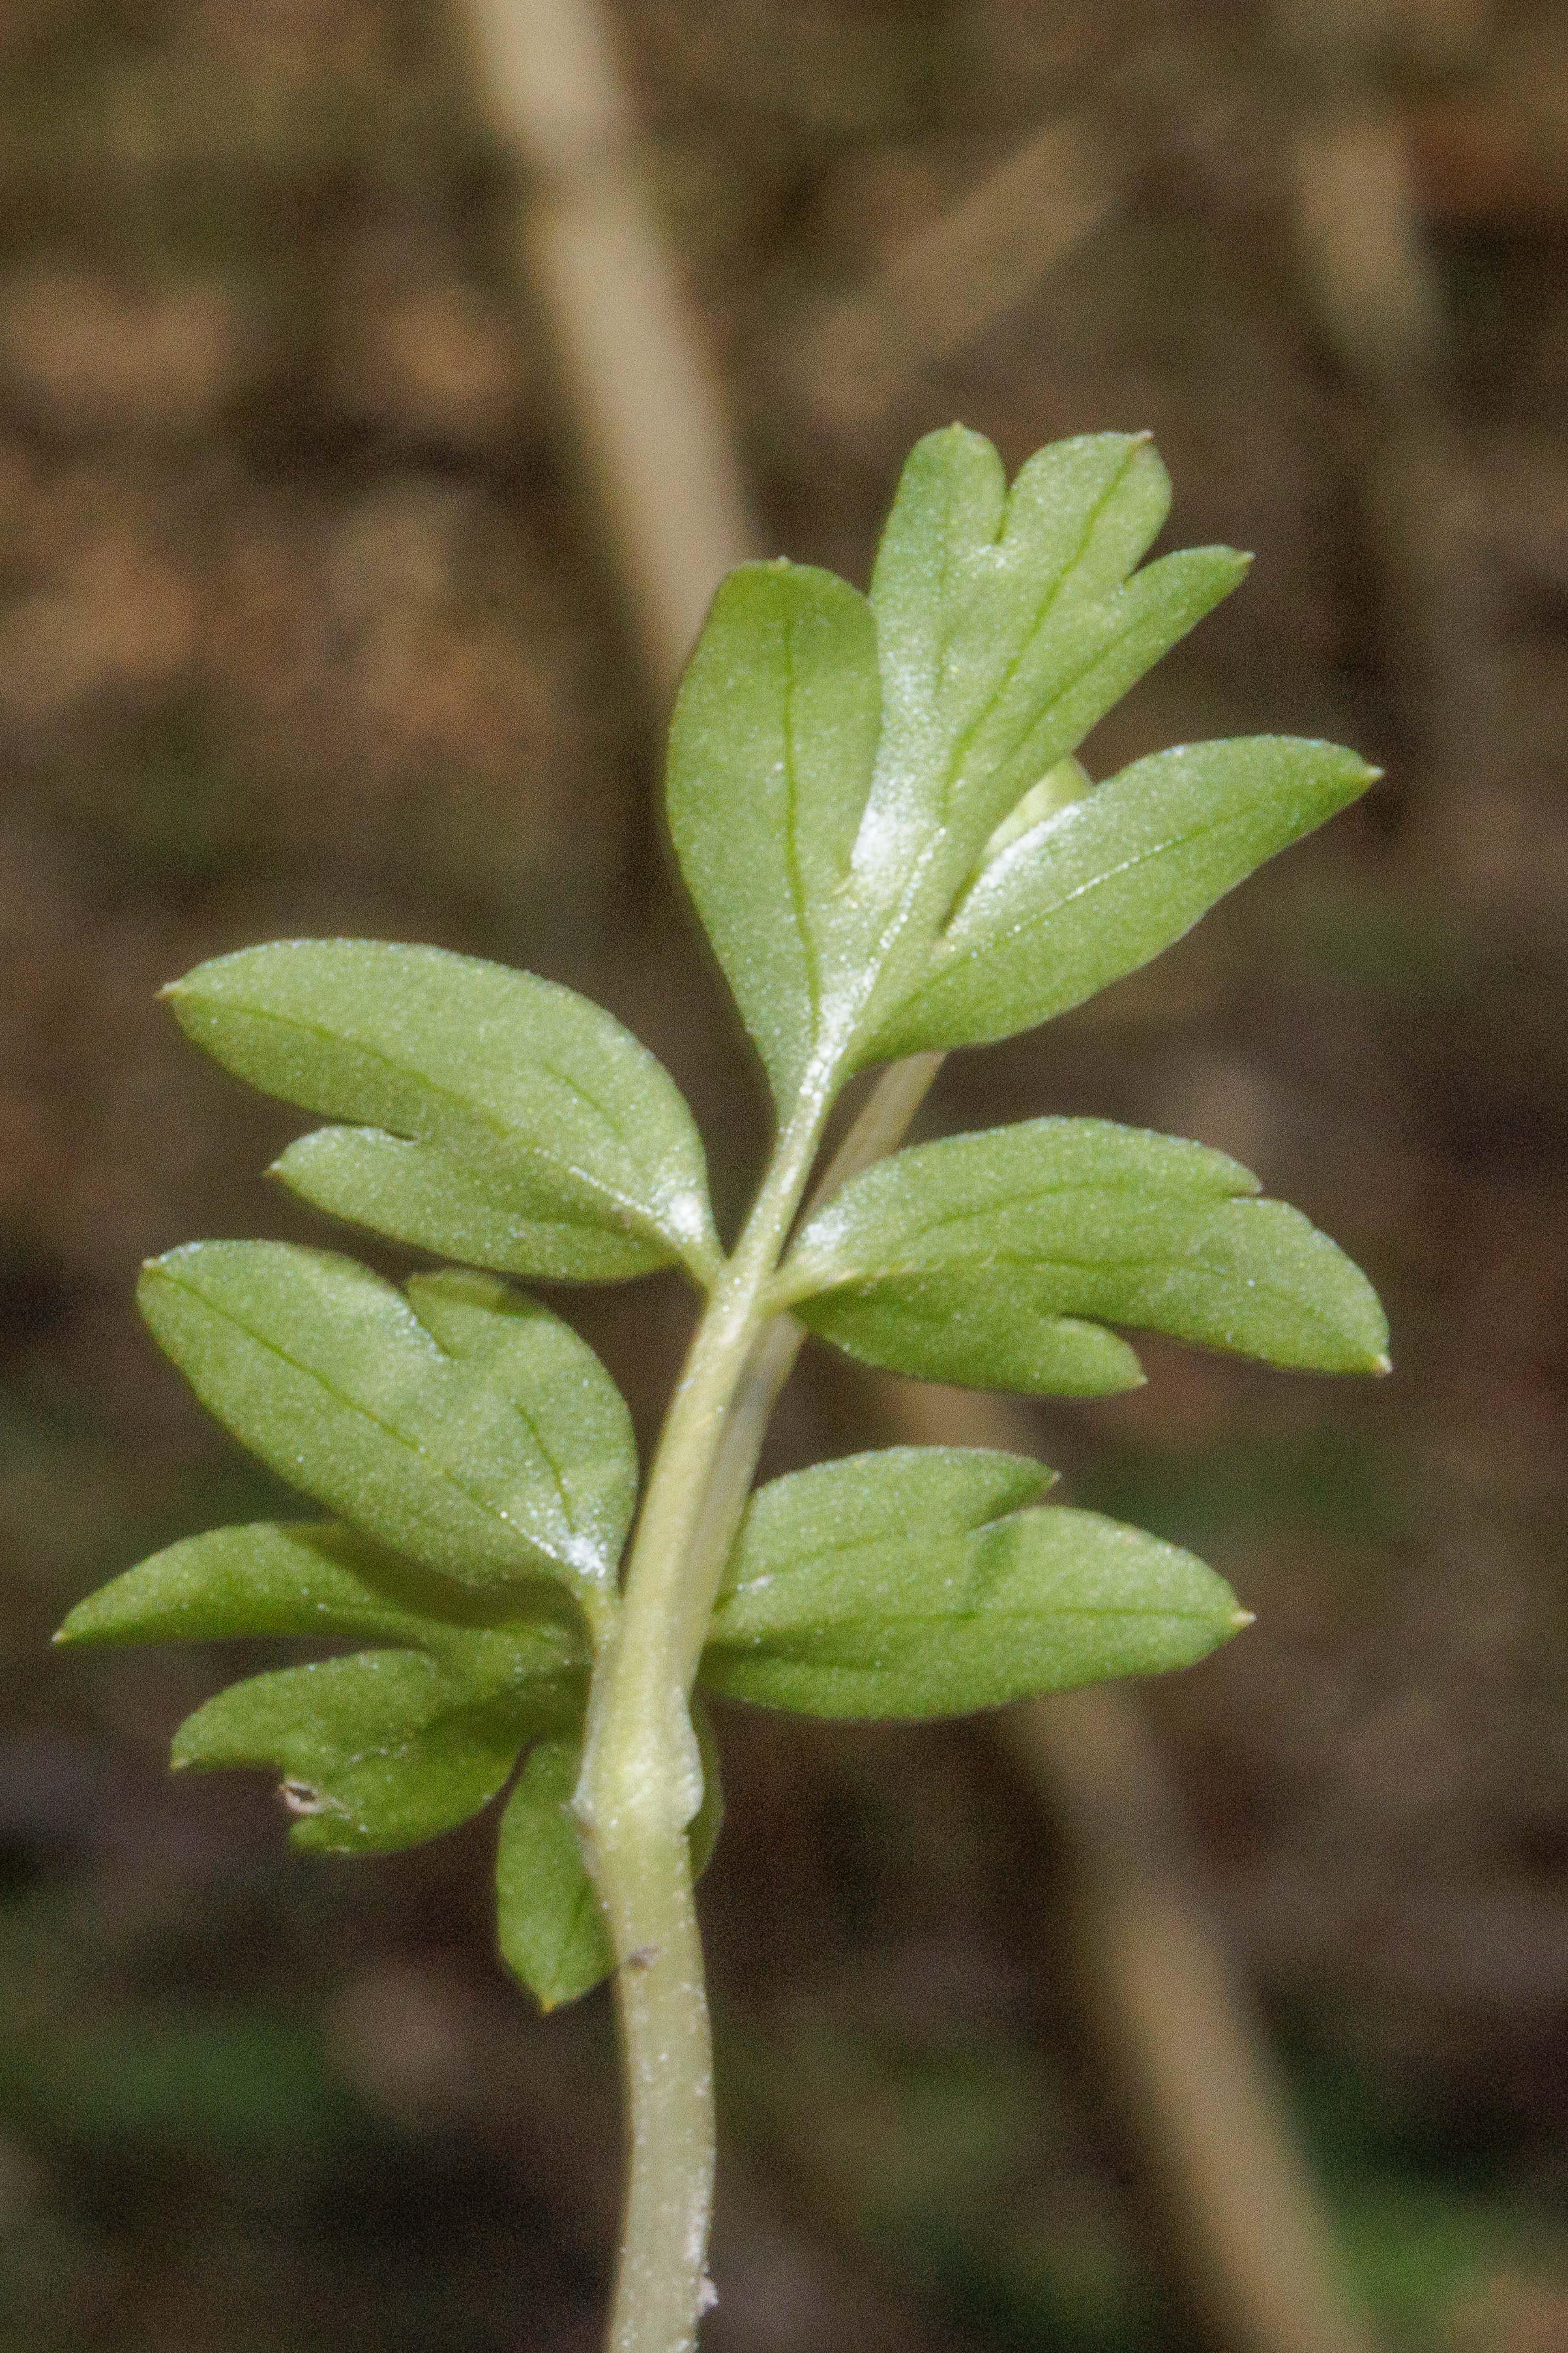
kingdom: Plantae
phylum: Tracheophyta
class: Magnoliopsida
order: Dipsacales
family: Viburnaceae
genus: Adoxa
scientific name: Adoxa moschatellina
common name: Desmerurt
